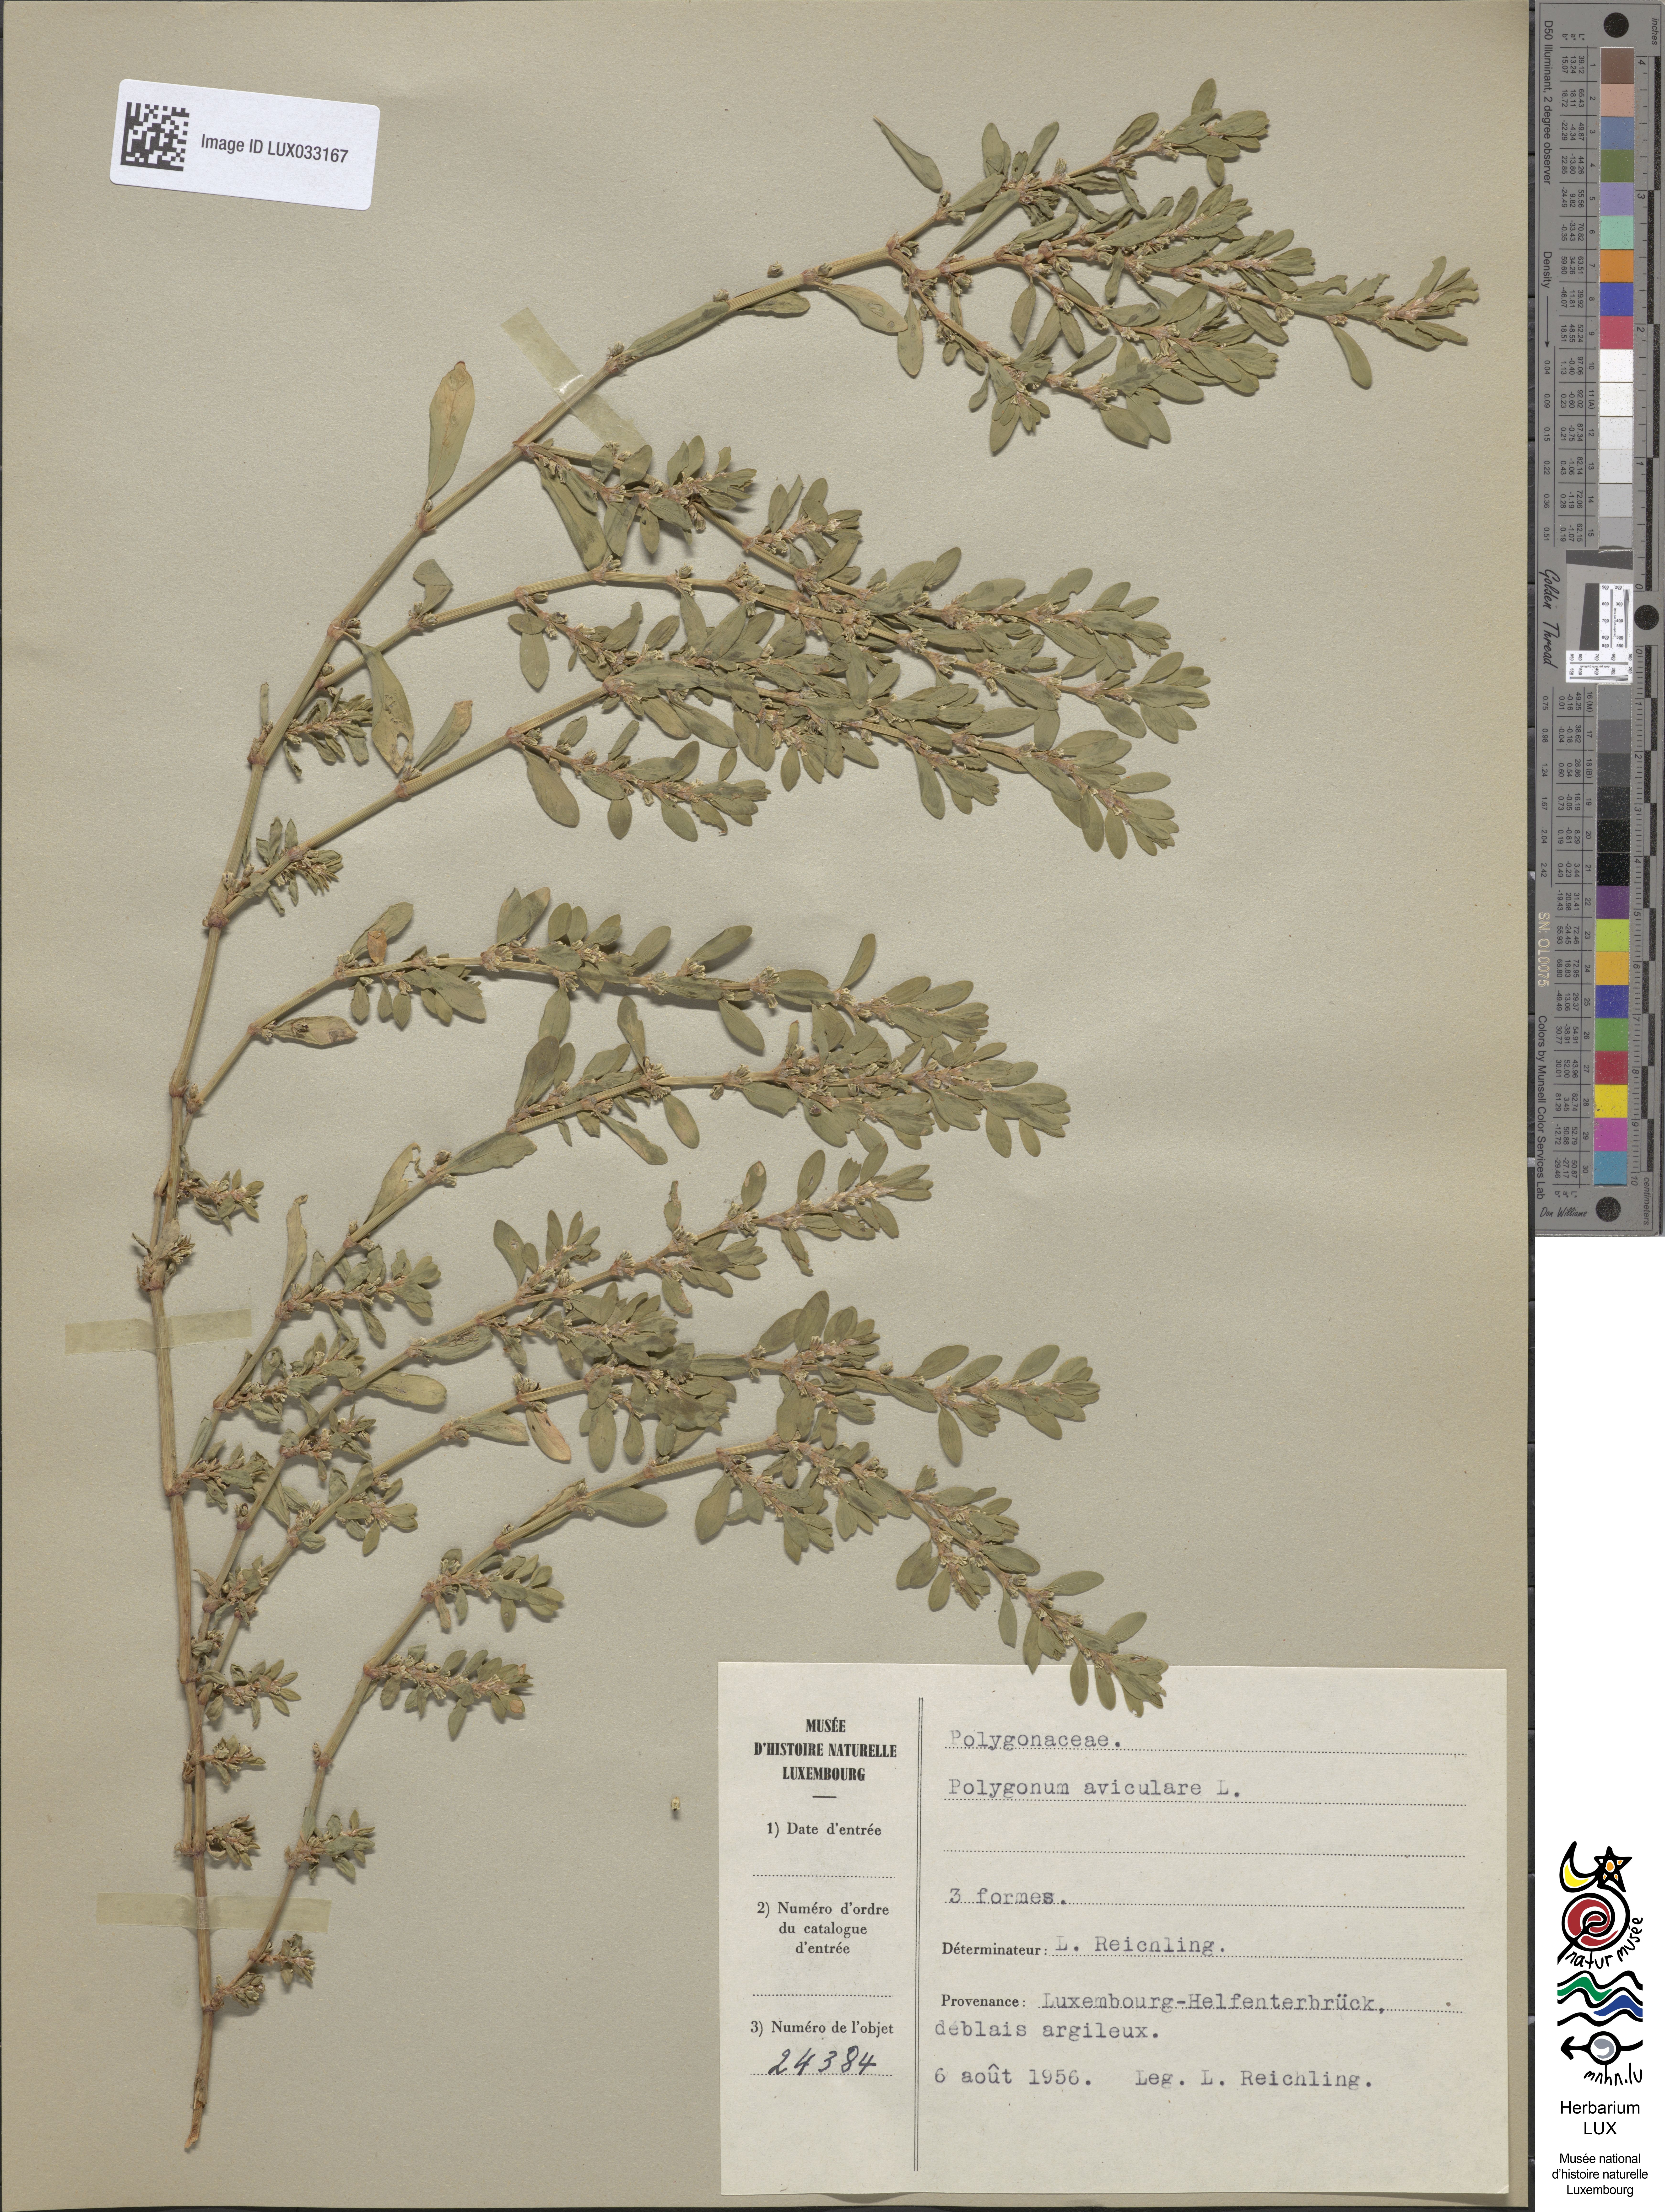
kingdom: Plantae
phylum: Tracheophyta
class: Magnoliopsida
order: Caryophyllales
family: Polygonaceae
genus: Polygonum
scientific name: Polygonum aviculare
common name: Prostrate knotweed
